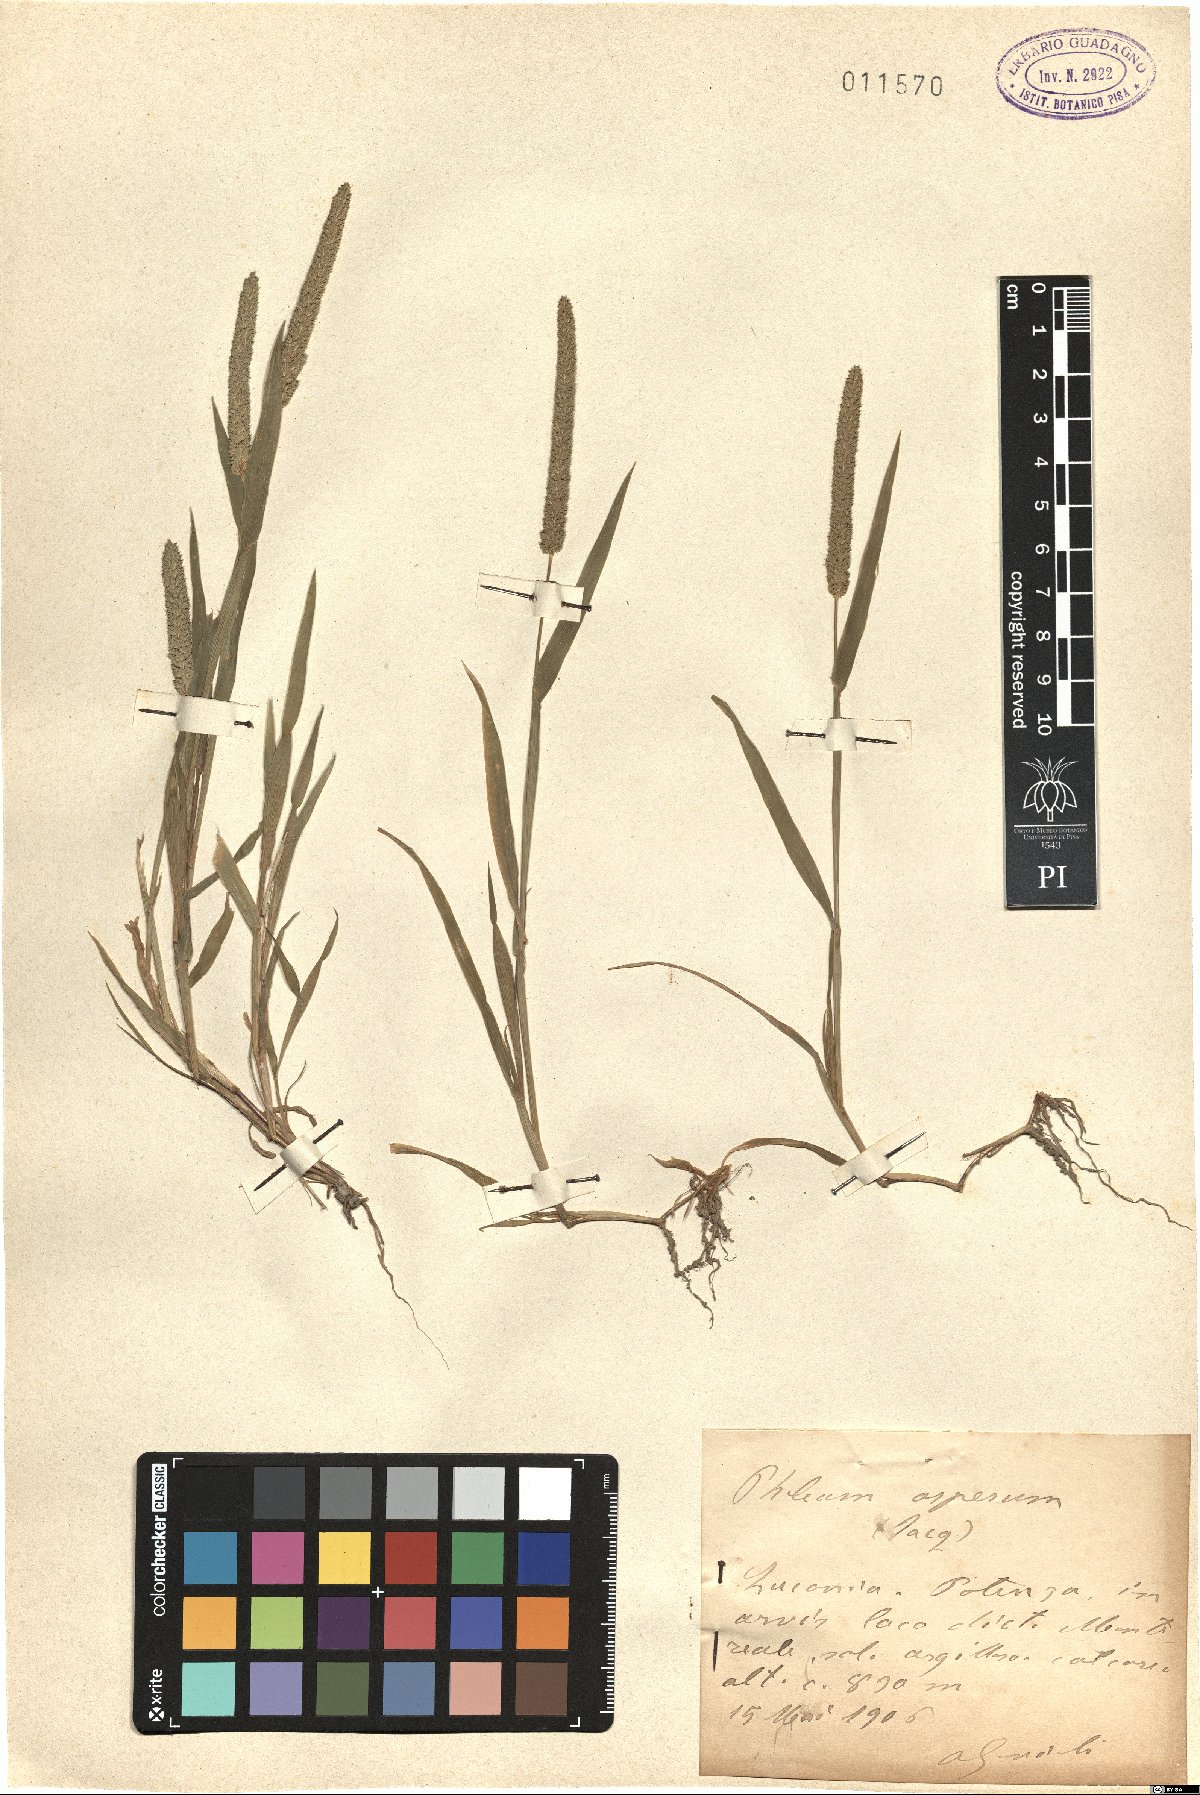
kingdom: Plantae
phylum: Tracheophyta
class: Liliopsida
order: Poales
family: Poaceae
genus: Phleum
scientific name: Phleum paniculatum
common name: British timothy
